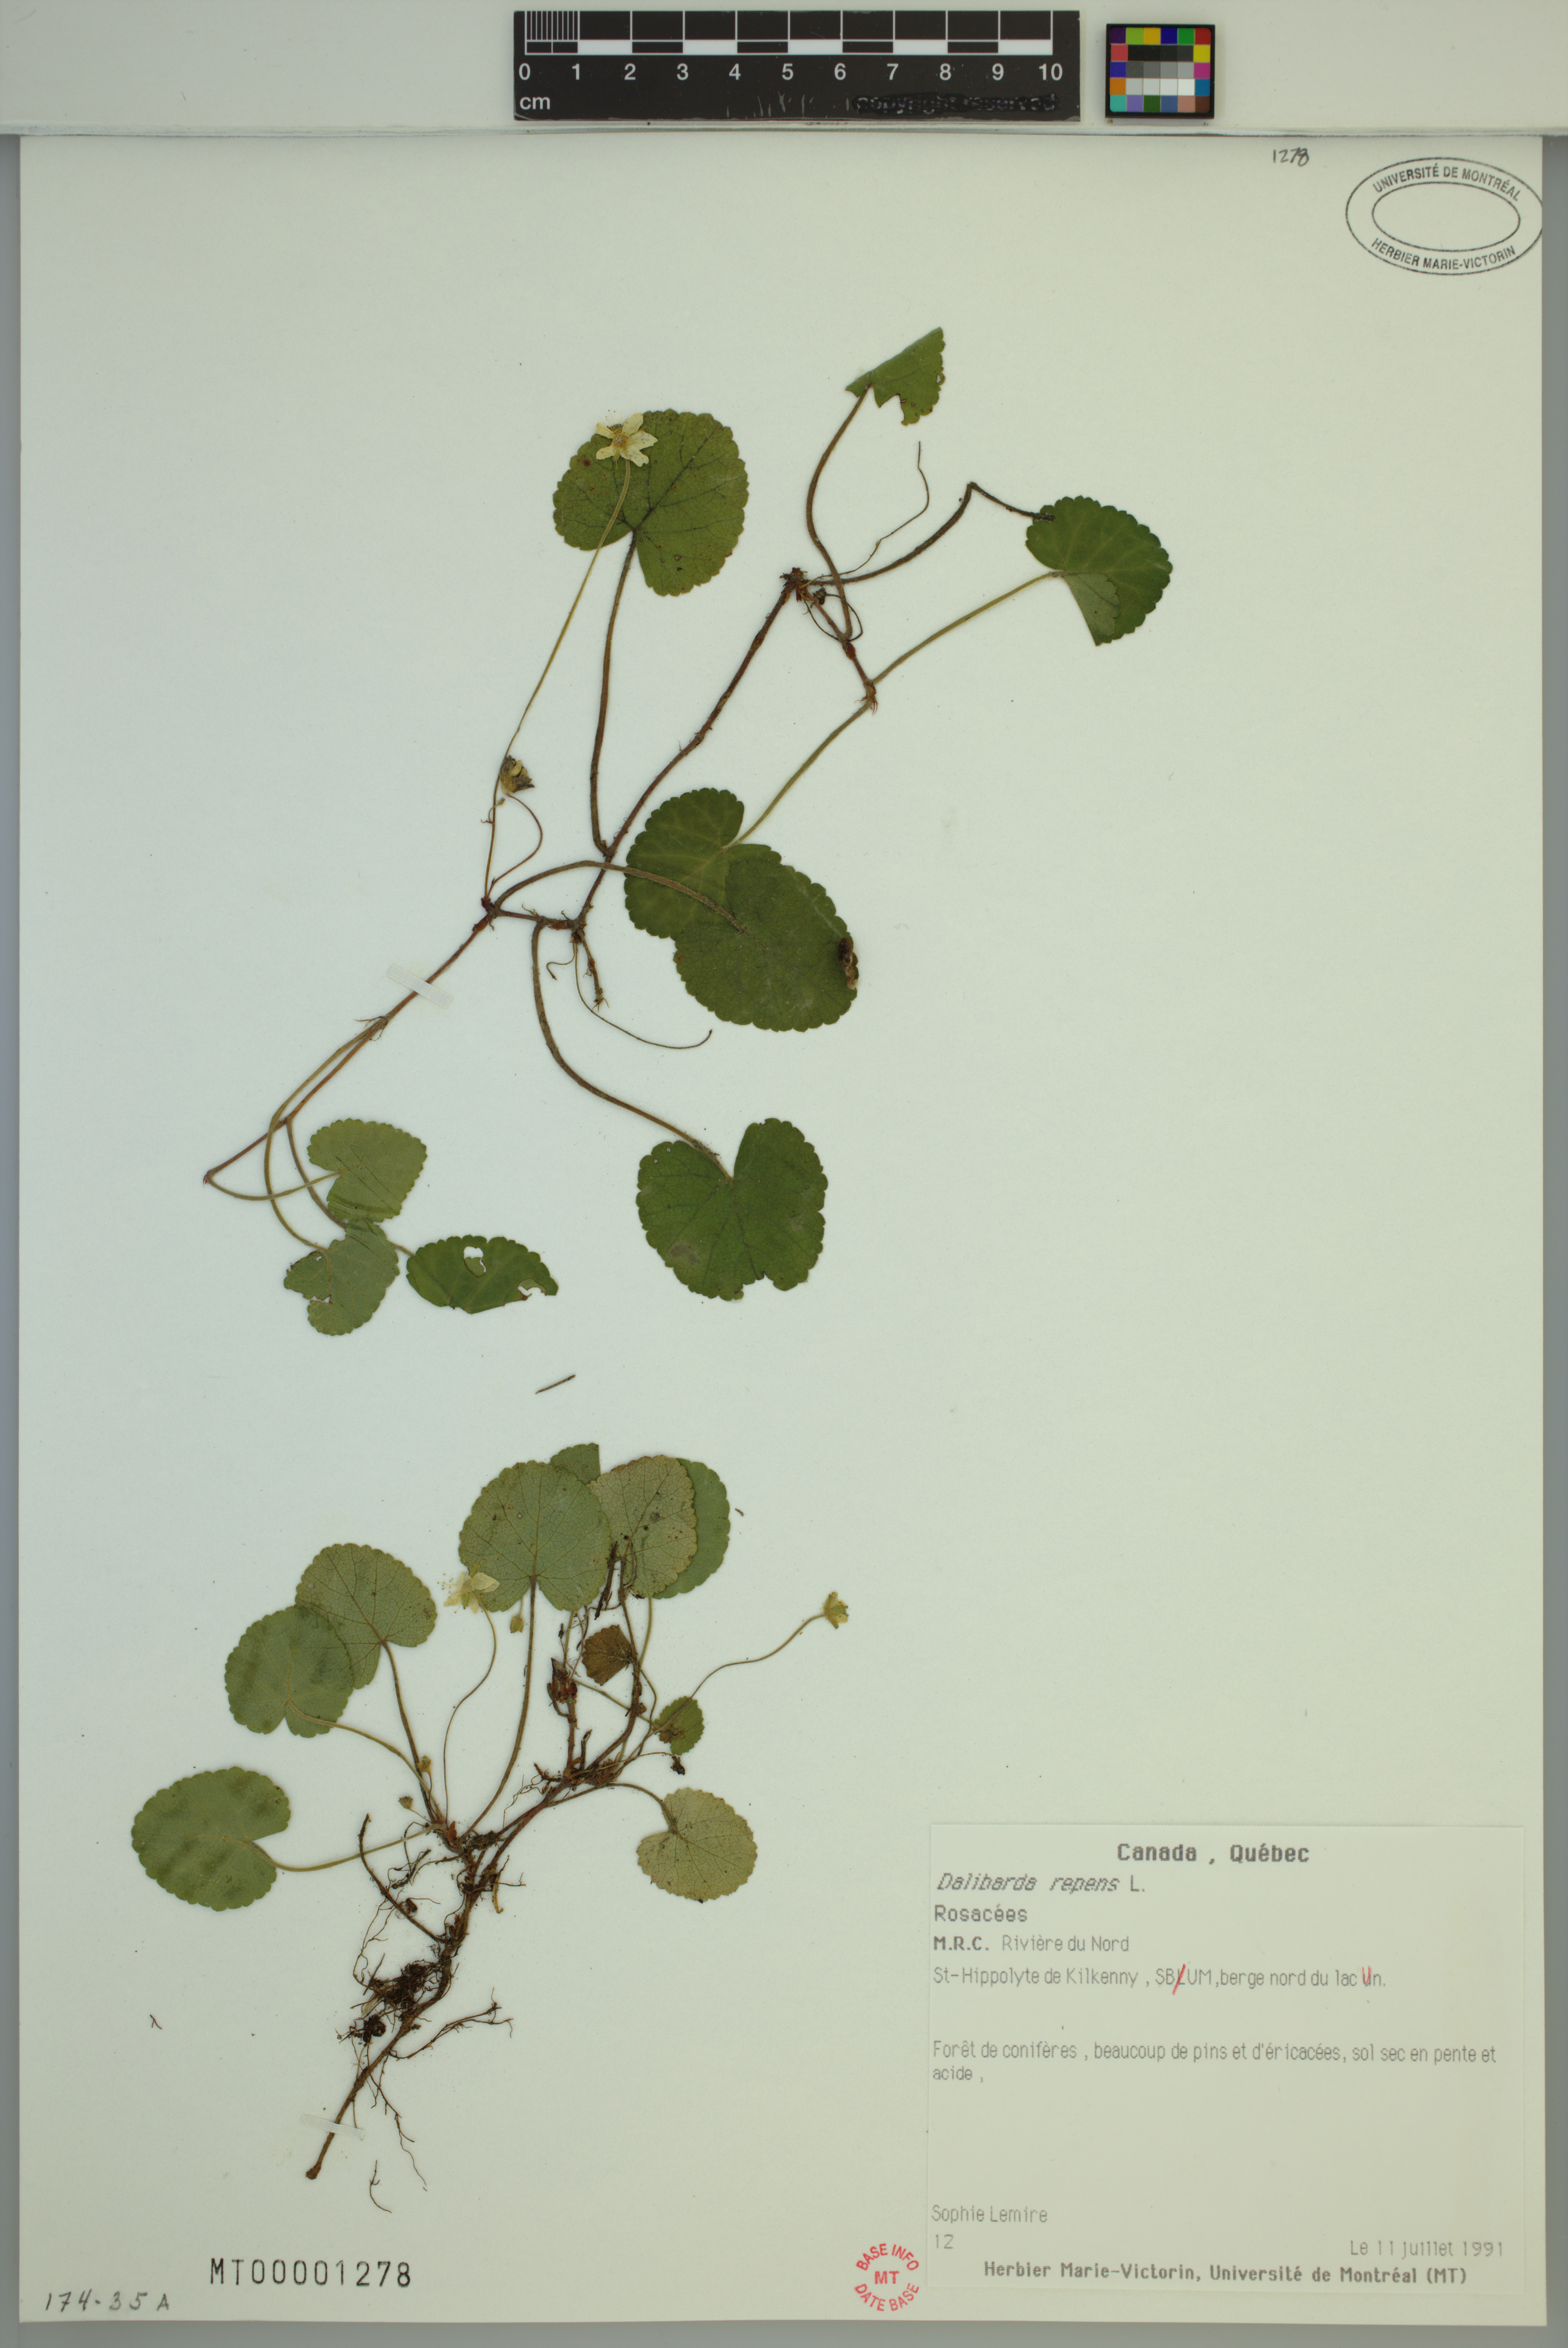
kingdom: Plantae
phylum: Tracheophyta
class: Magnoliopsida
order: Rosales
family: Rosaceae
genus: Dalibarda
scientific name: Dalibarda repens
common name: Dewdrop
